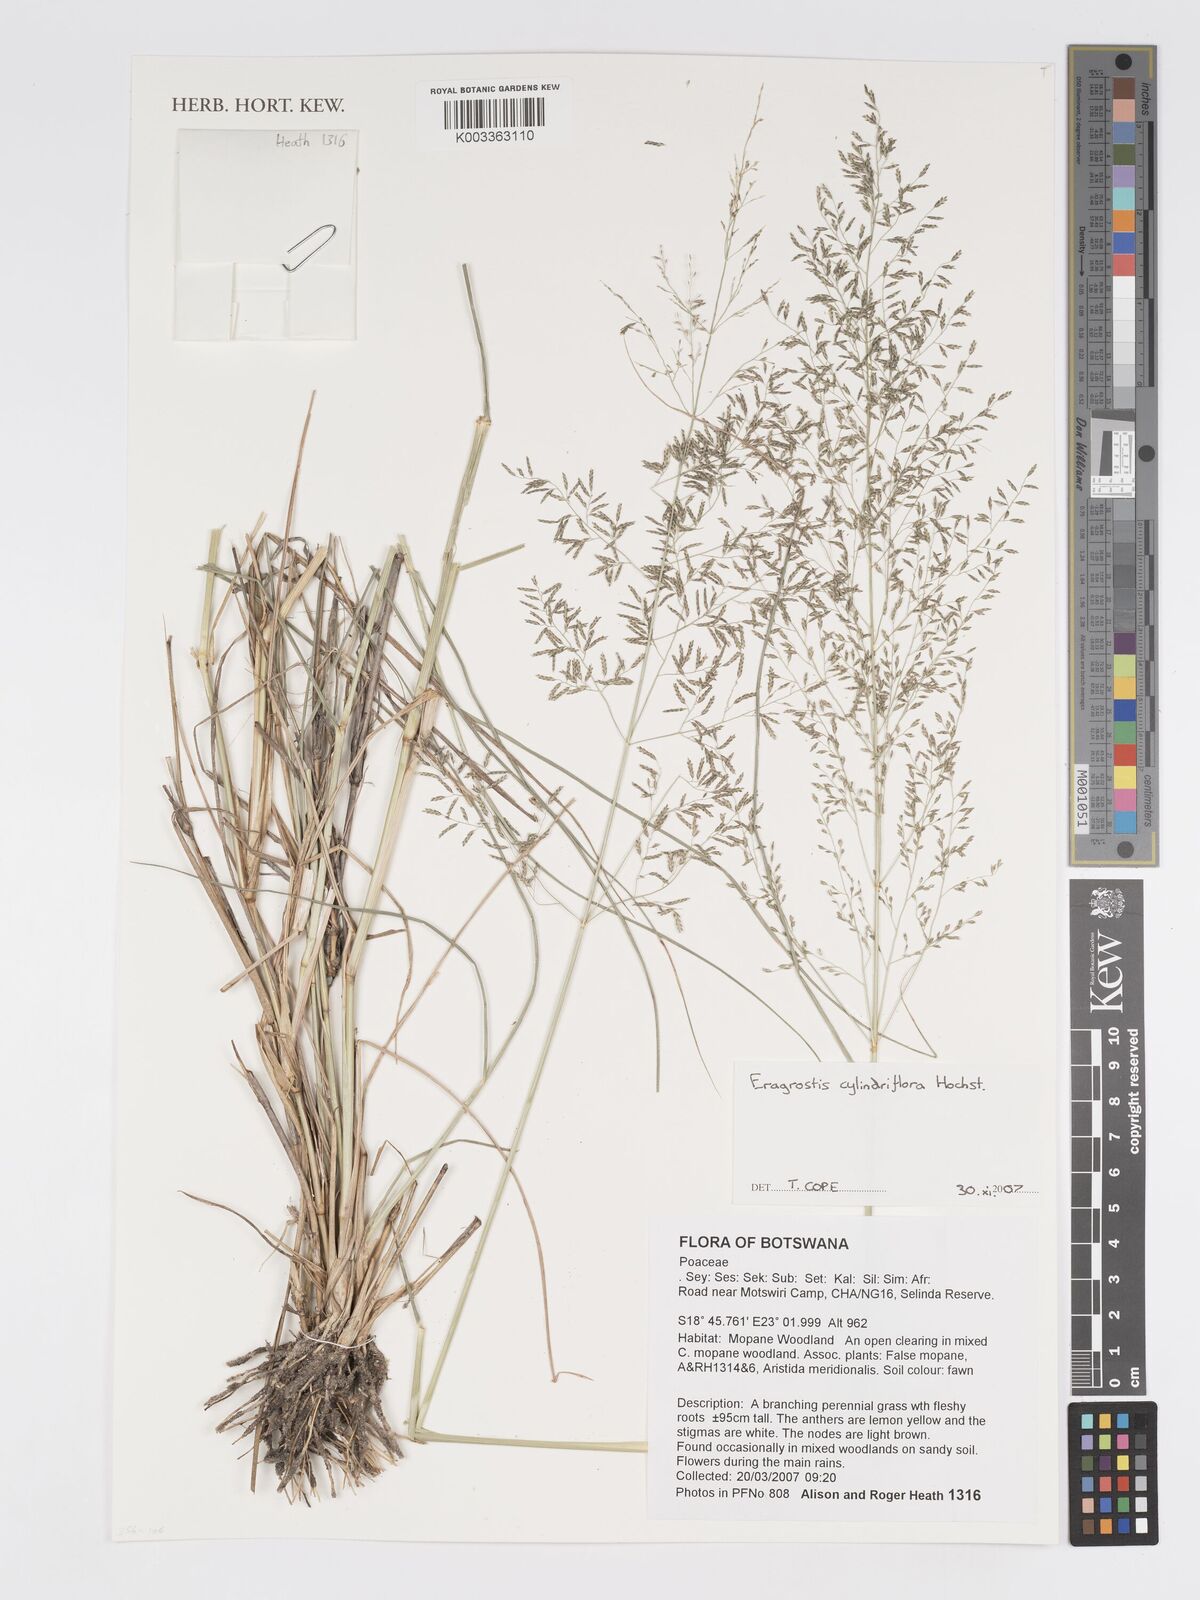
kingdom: Plantae
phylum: Tracheophyta
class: Liliopsida
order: Poales
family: Poaceae
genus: Eragrostis
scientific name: Eragrostis cylindriflora
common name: Cylinderflower lovegrass
